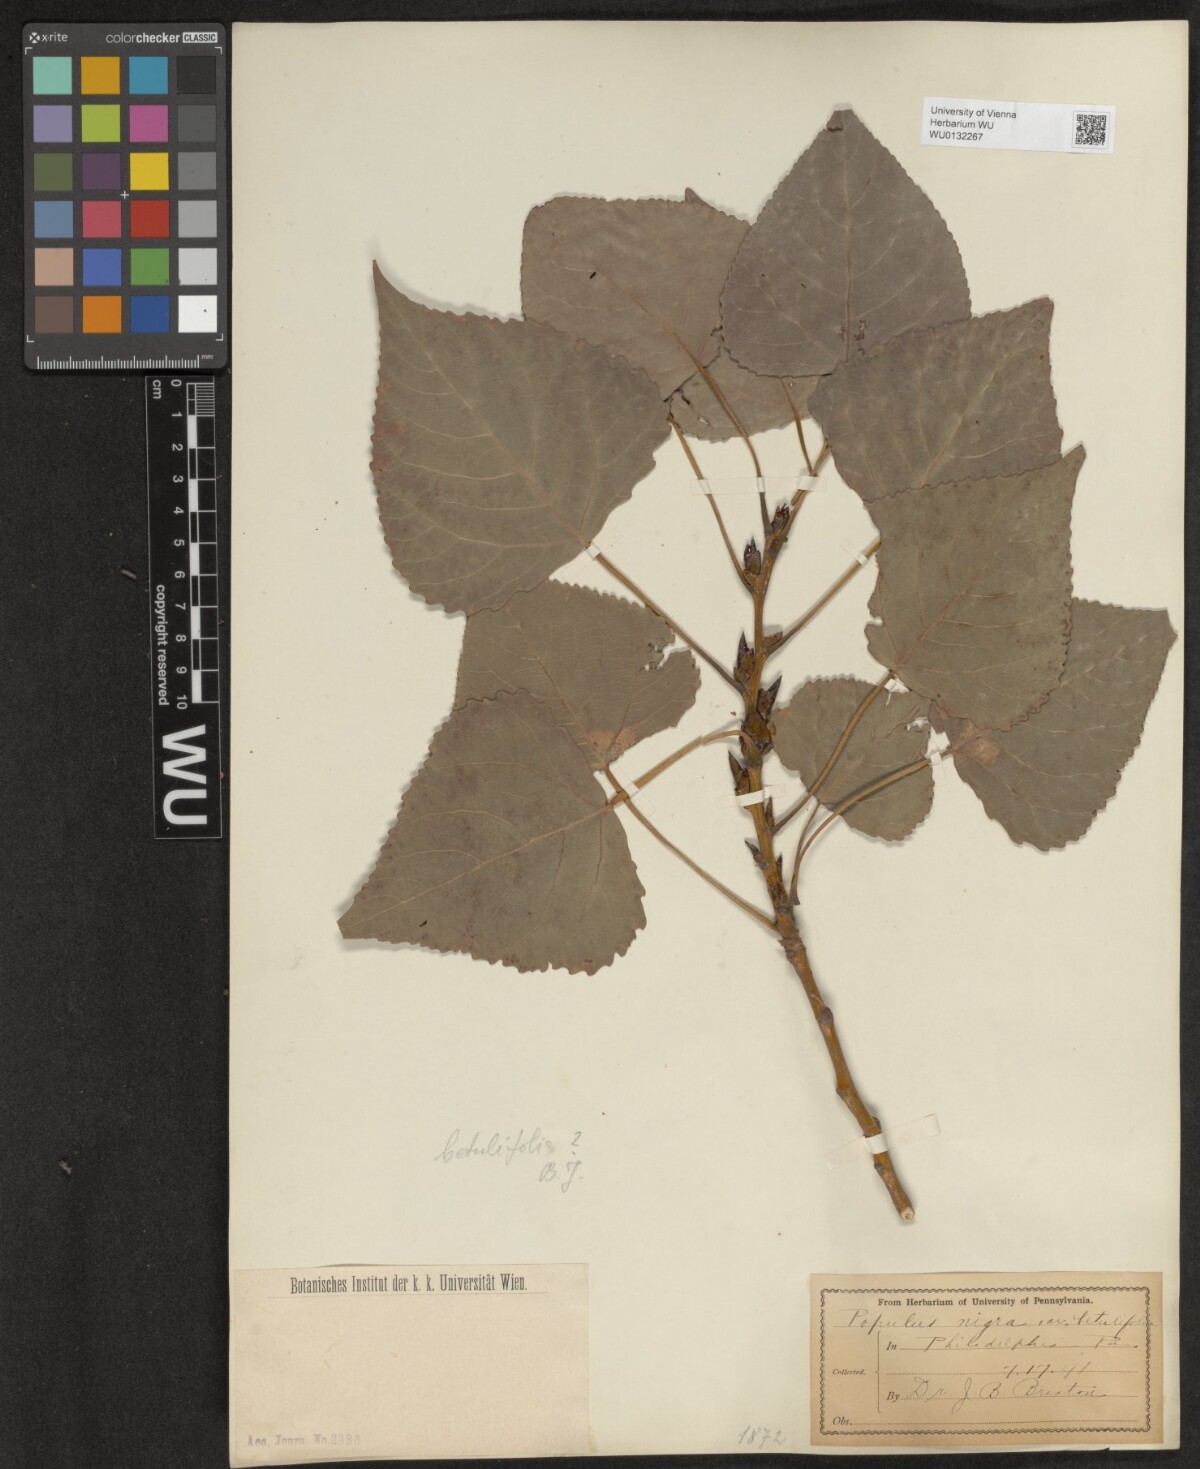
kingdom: Plantae
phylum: Tracheophyta
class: Magnoliopsida
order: Malpighiales
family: Salicaceae
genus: Populus
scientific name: Populus nigra
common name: Black poplar
